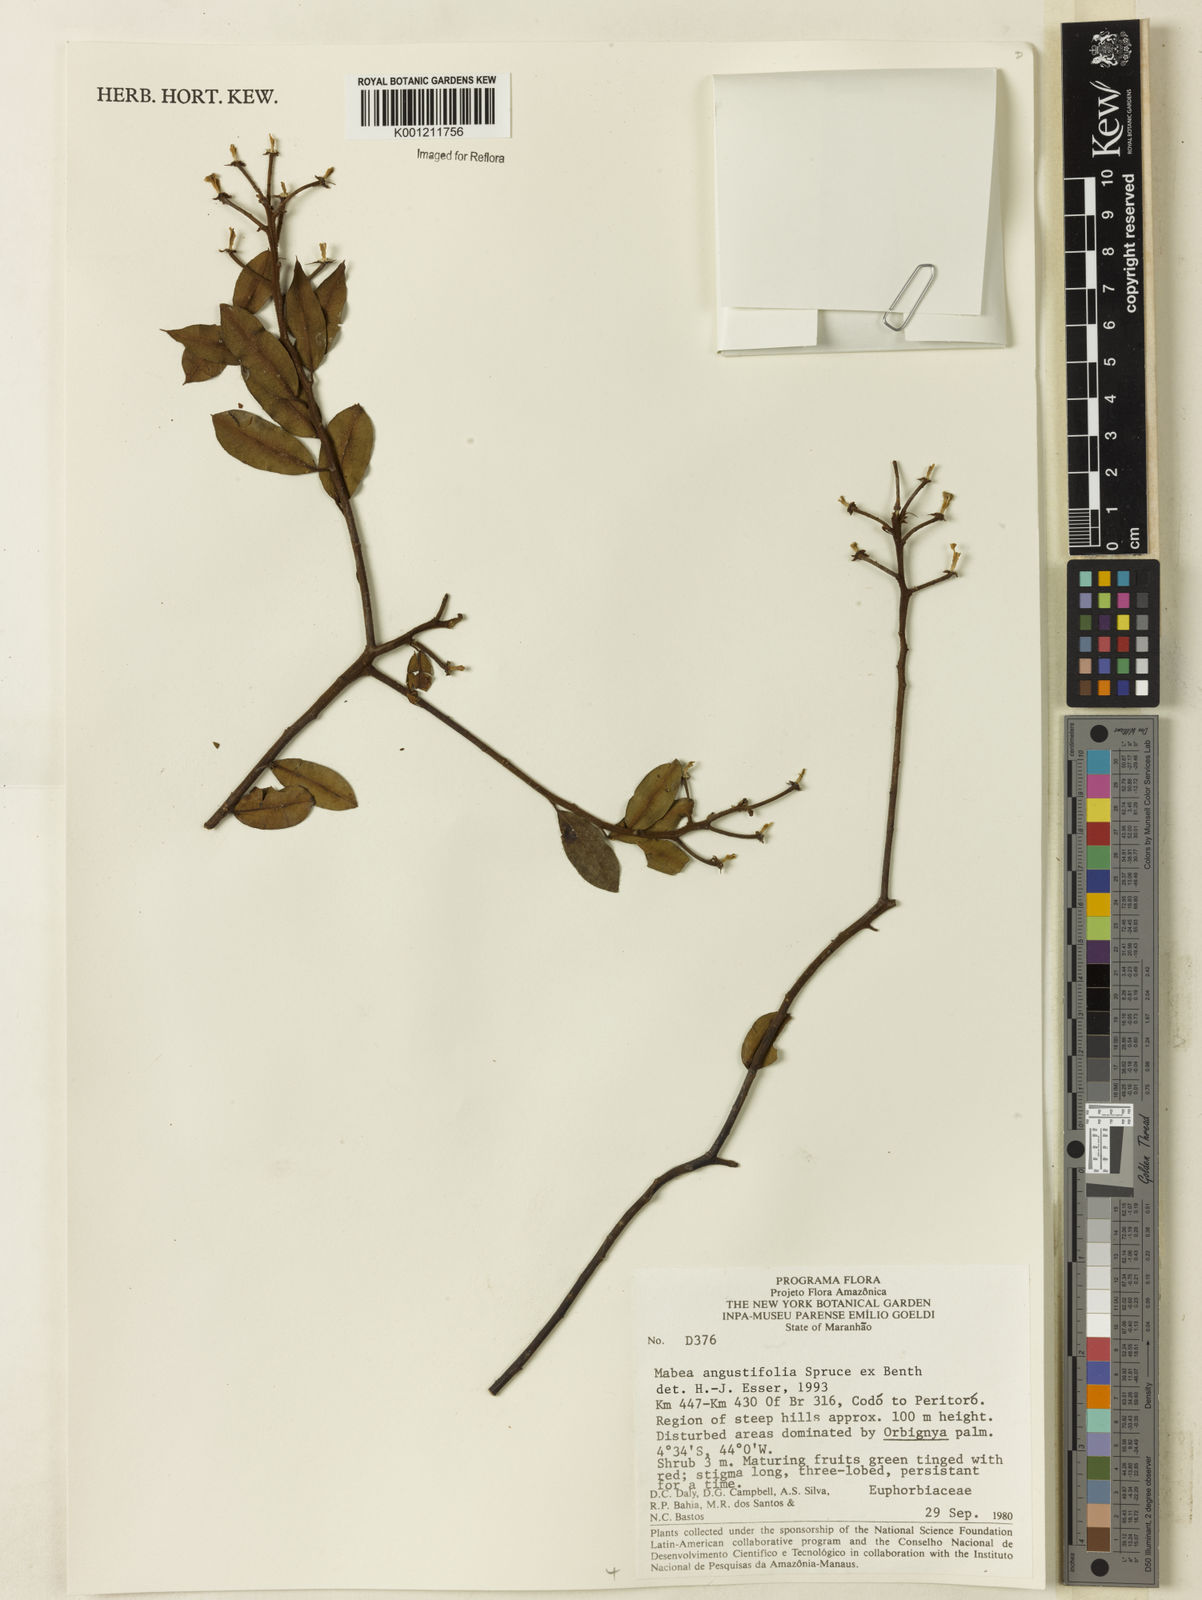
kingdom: Plantae
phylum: Tracheophyta
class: Magnoliopsida
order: Malpighiales
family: Euphorbiaceae
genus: Mabea
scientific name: Mabea angustifolia
